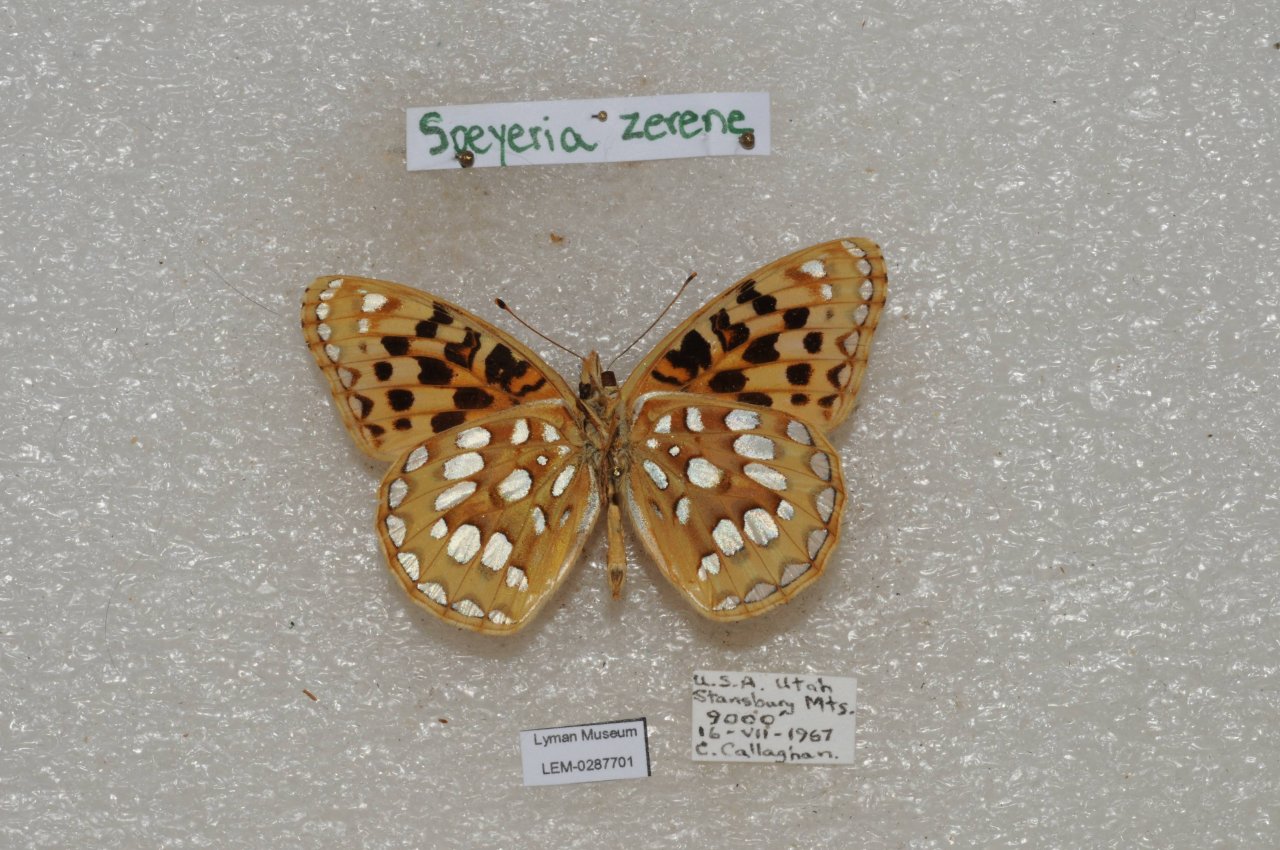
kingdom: Animalia
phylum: Arthropoda
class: Insecta
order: Lepidoptera
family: Nymphalidae
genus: Speyeria
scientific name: Speyeria zerene
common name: Zerene Fritillary
